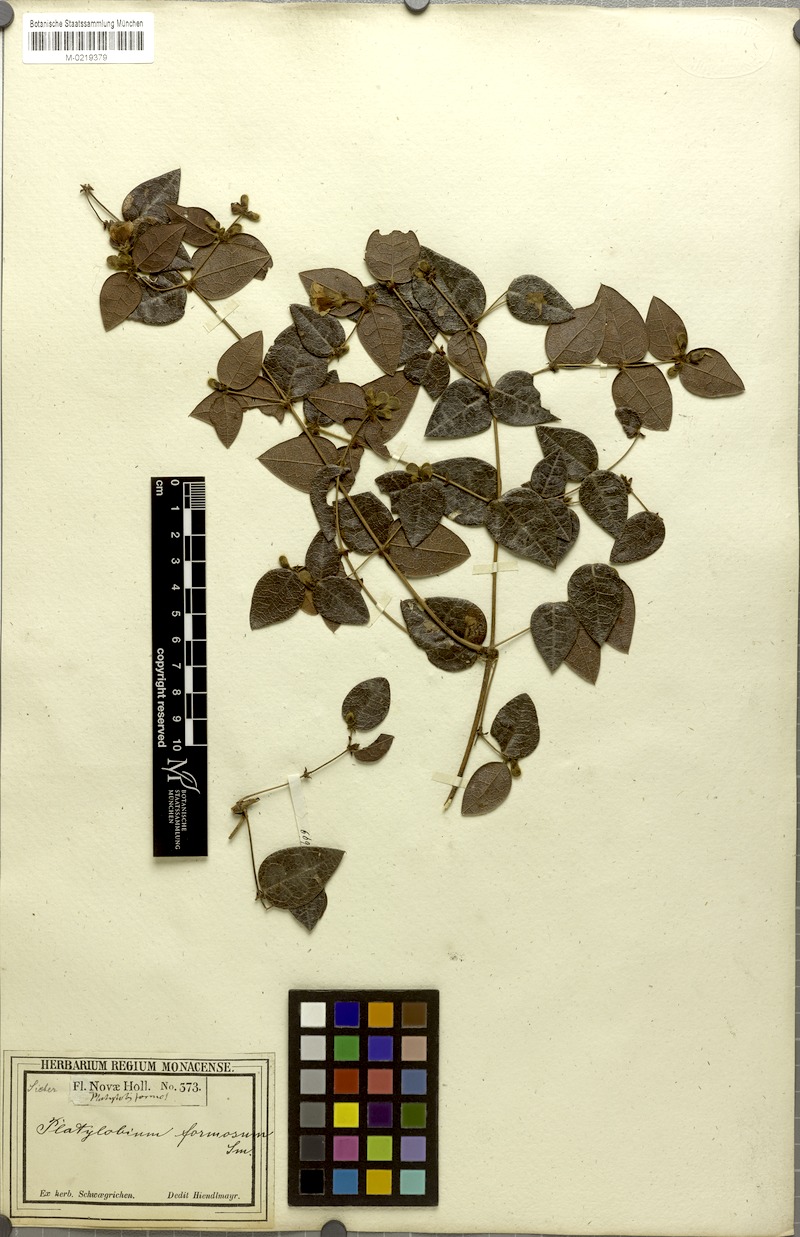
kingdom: Plantae
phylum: Tracheophyta
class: Magnoliopsida
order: Fabales
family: Fabaceae
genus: Platylobium
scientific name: Platylobium formosum
